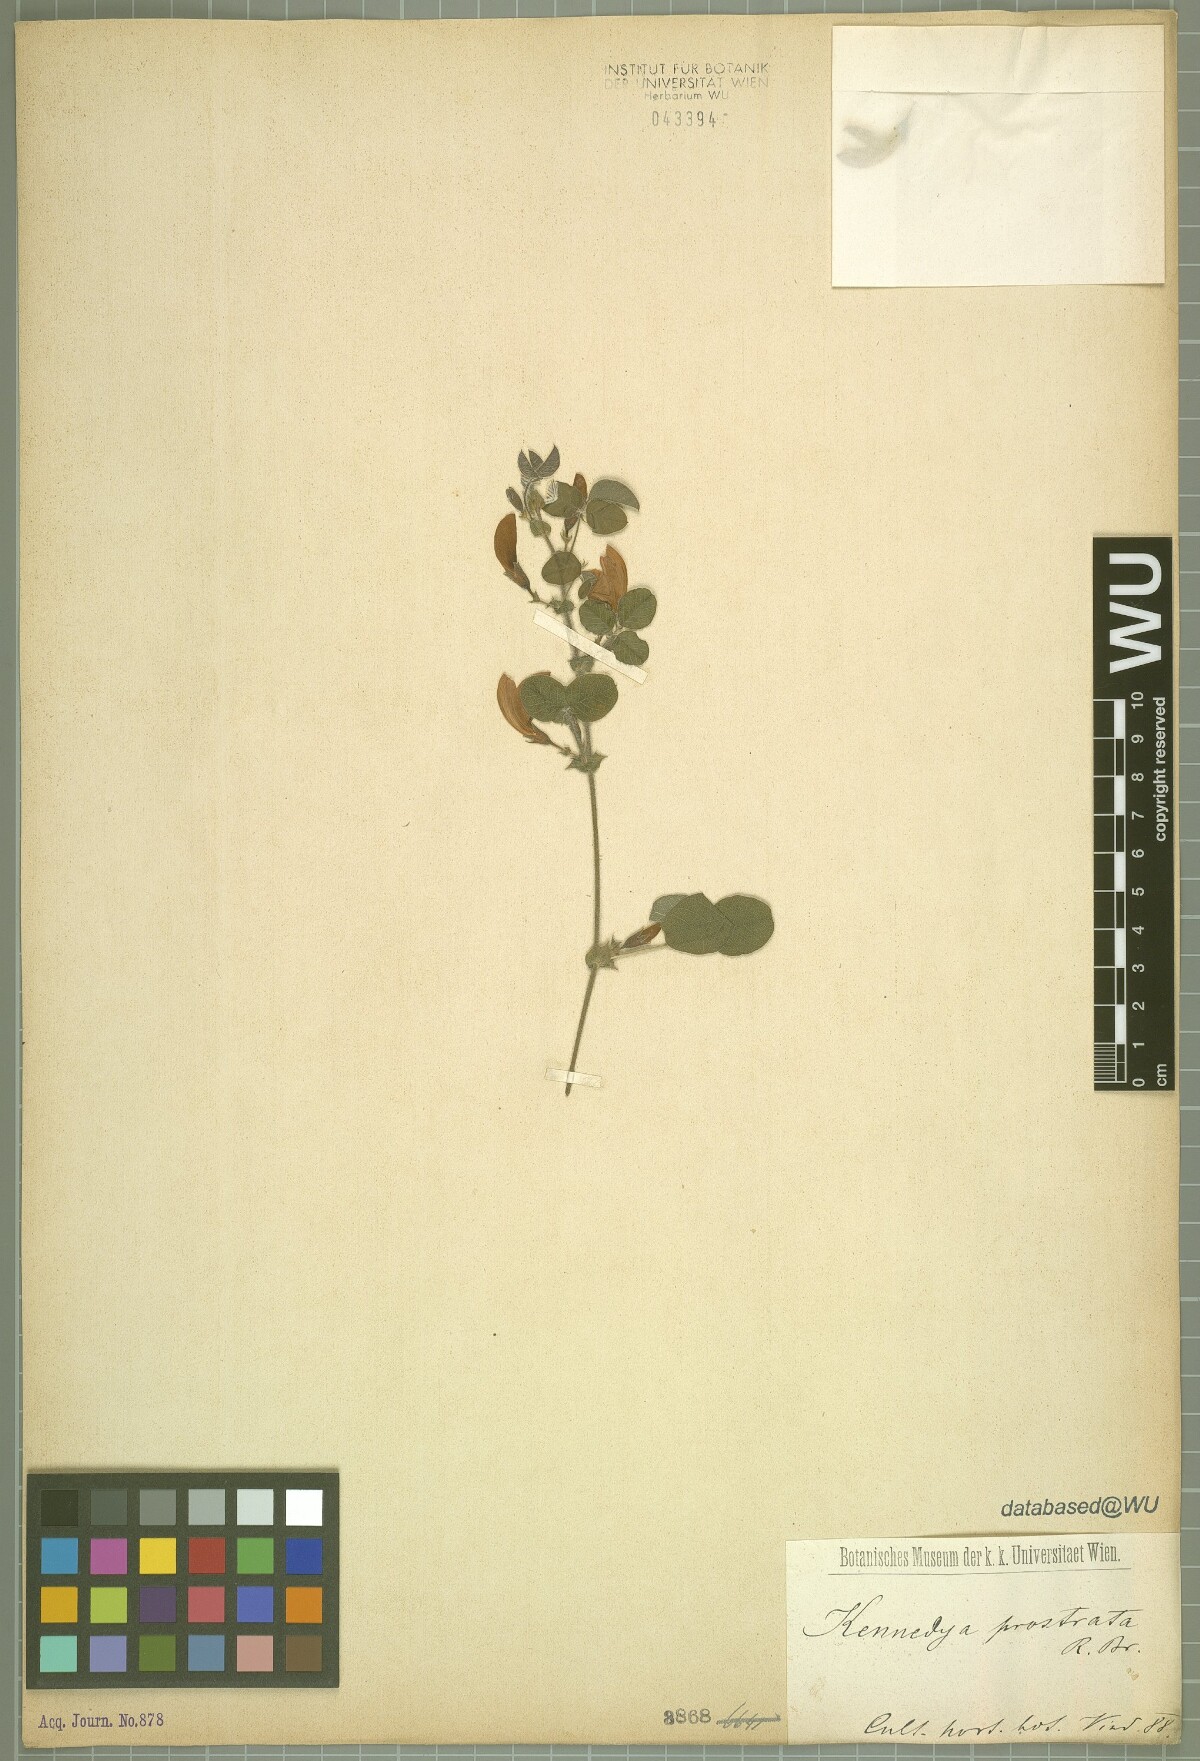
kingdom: Plantae
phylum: Tracheophyta
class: Magnoliopsida
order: Fabales
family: Fabaceae
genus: Kennedia
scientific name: Kennedia prostrata
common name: Running-postman
